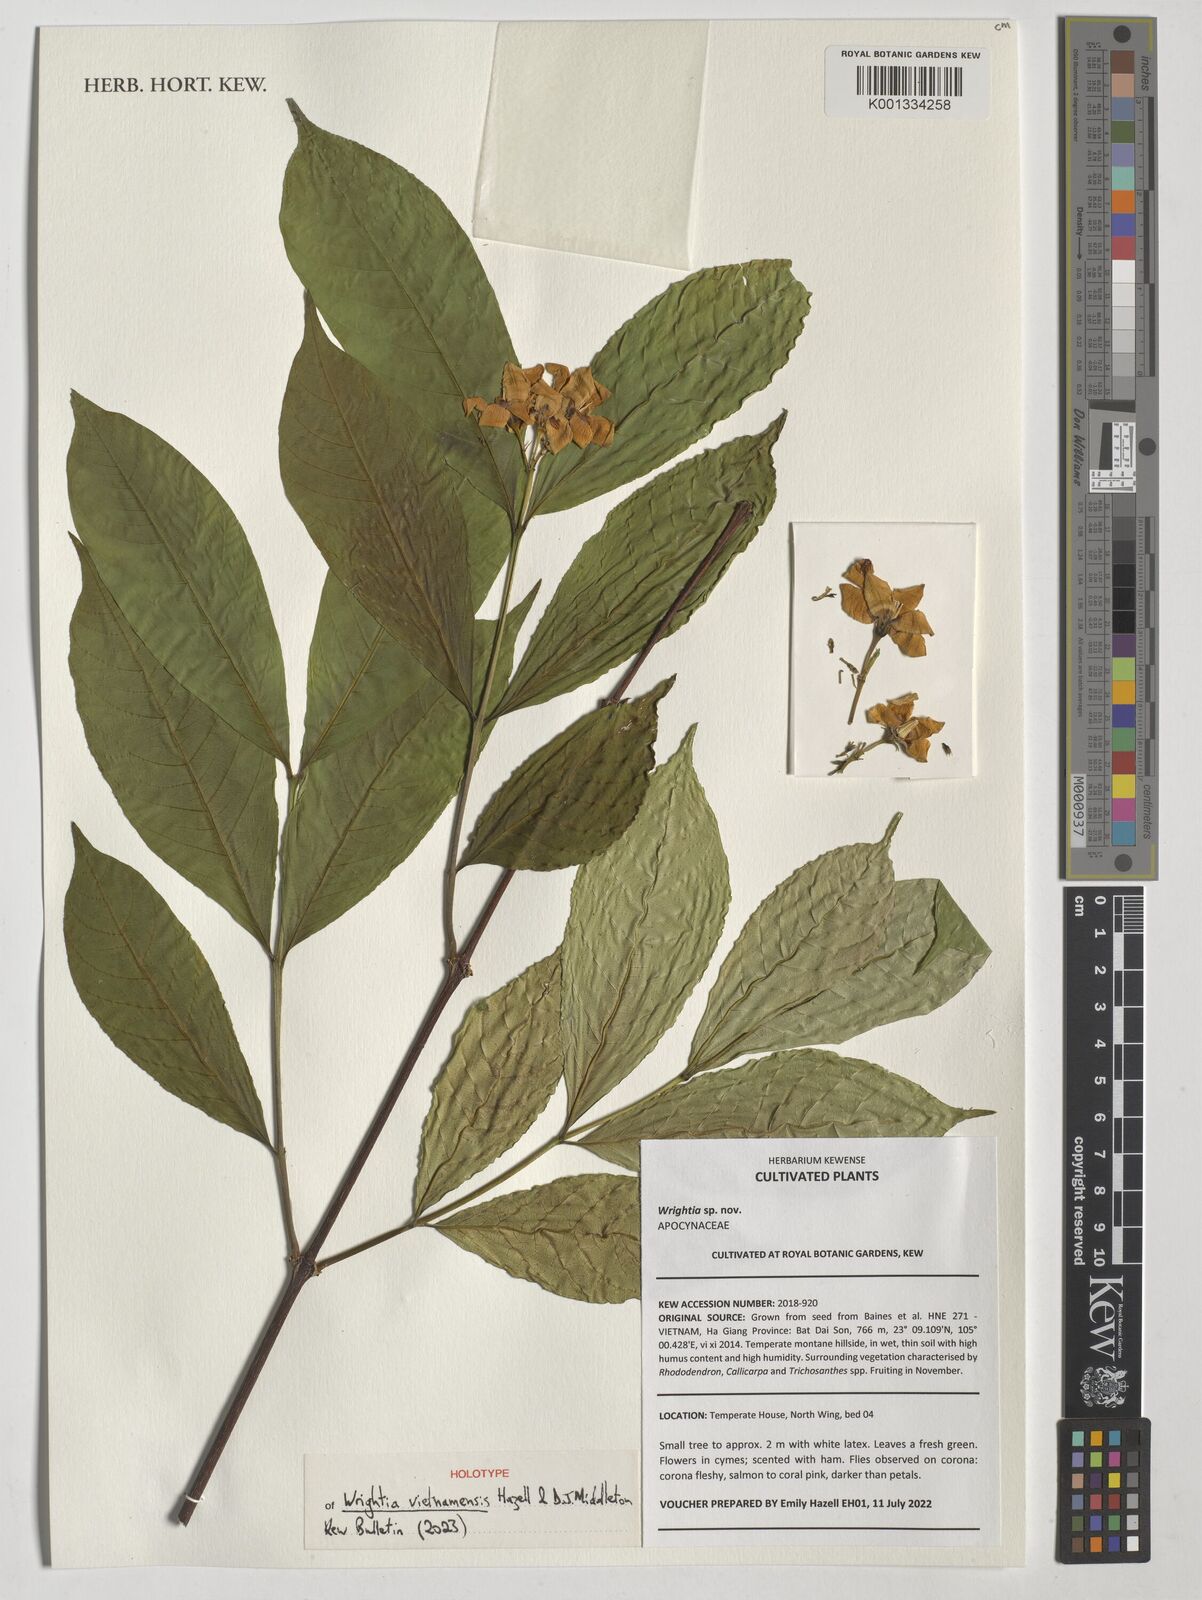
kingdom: Plantae
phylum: Tracheophyta
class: Magnoliopsida
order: Gentianales
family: Apocynaceae
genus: Wrightia
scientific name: Wrightia
